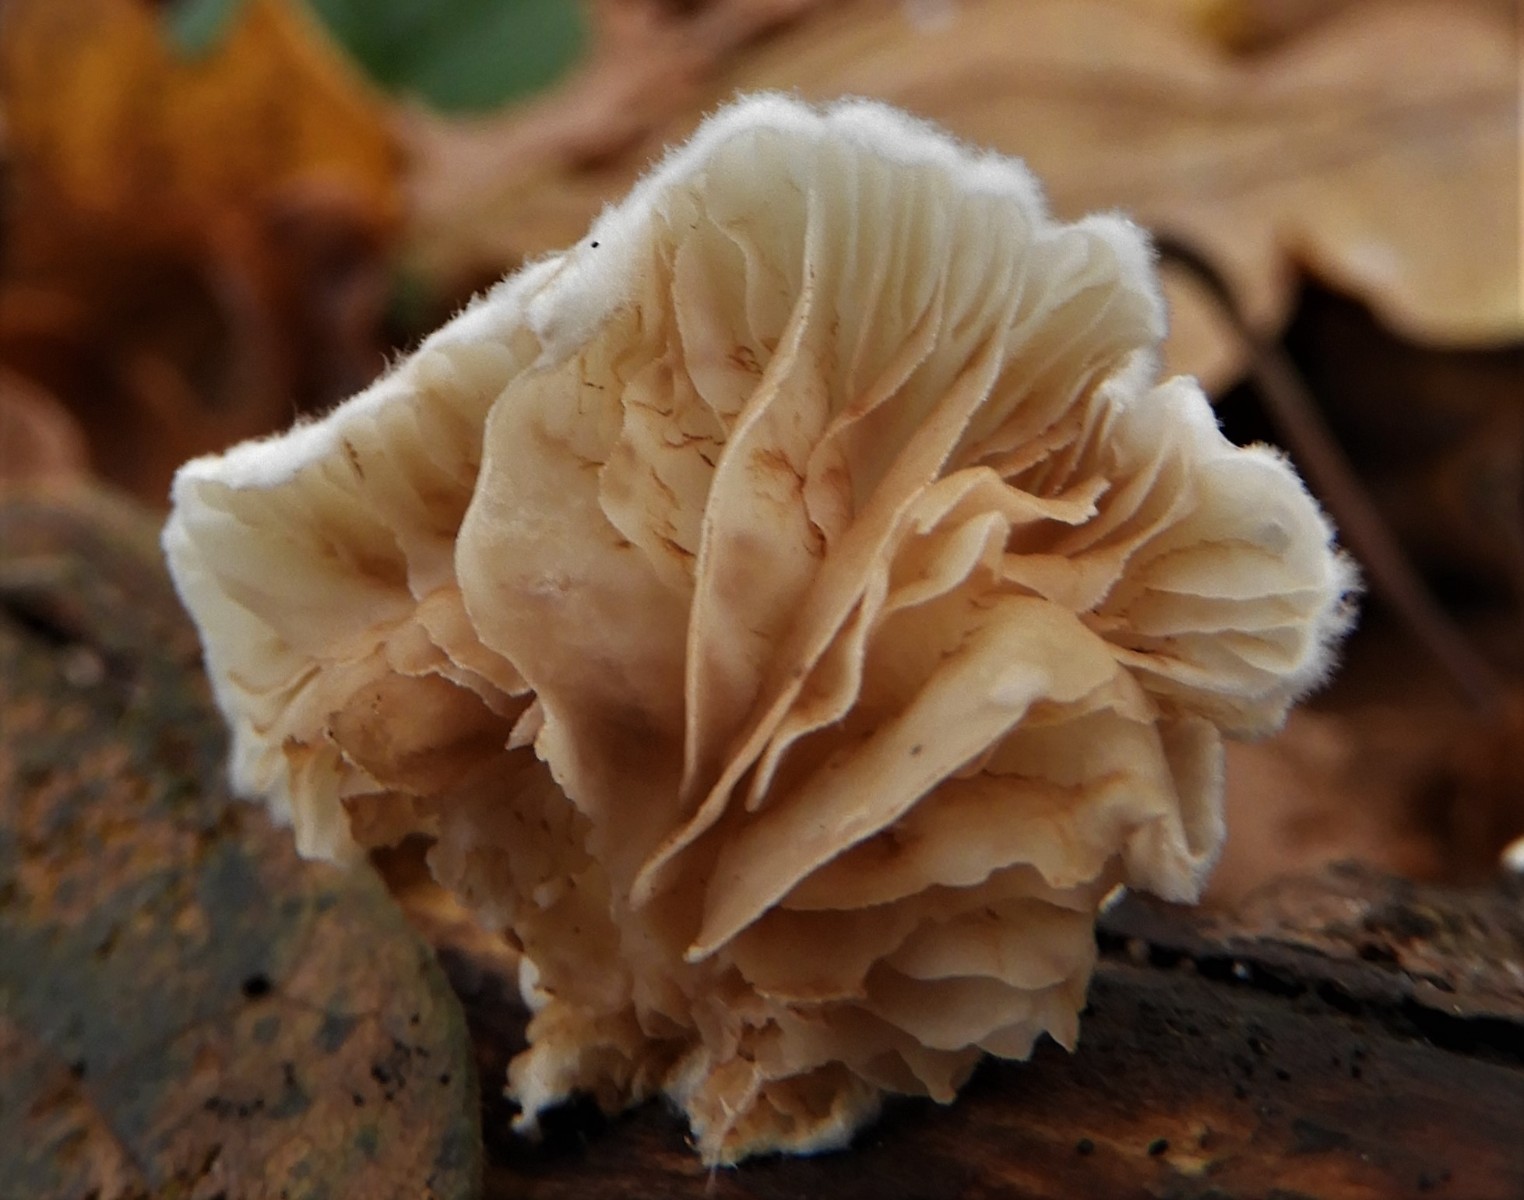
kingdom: Fungi
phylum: Basidiomycota
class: Agaricomycetes
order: Agaricales
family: Crepidotaceae
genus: Crepidotus
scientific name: Crepidotus
